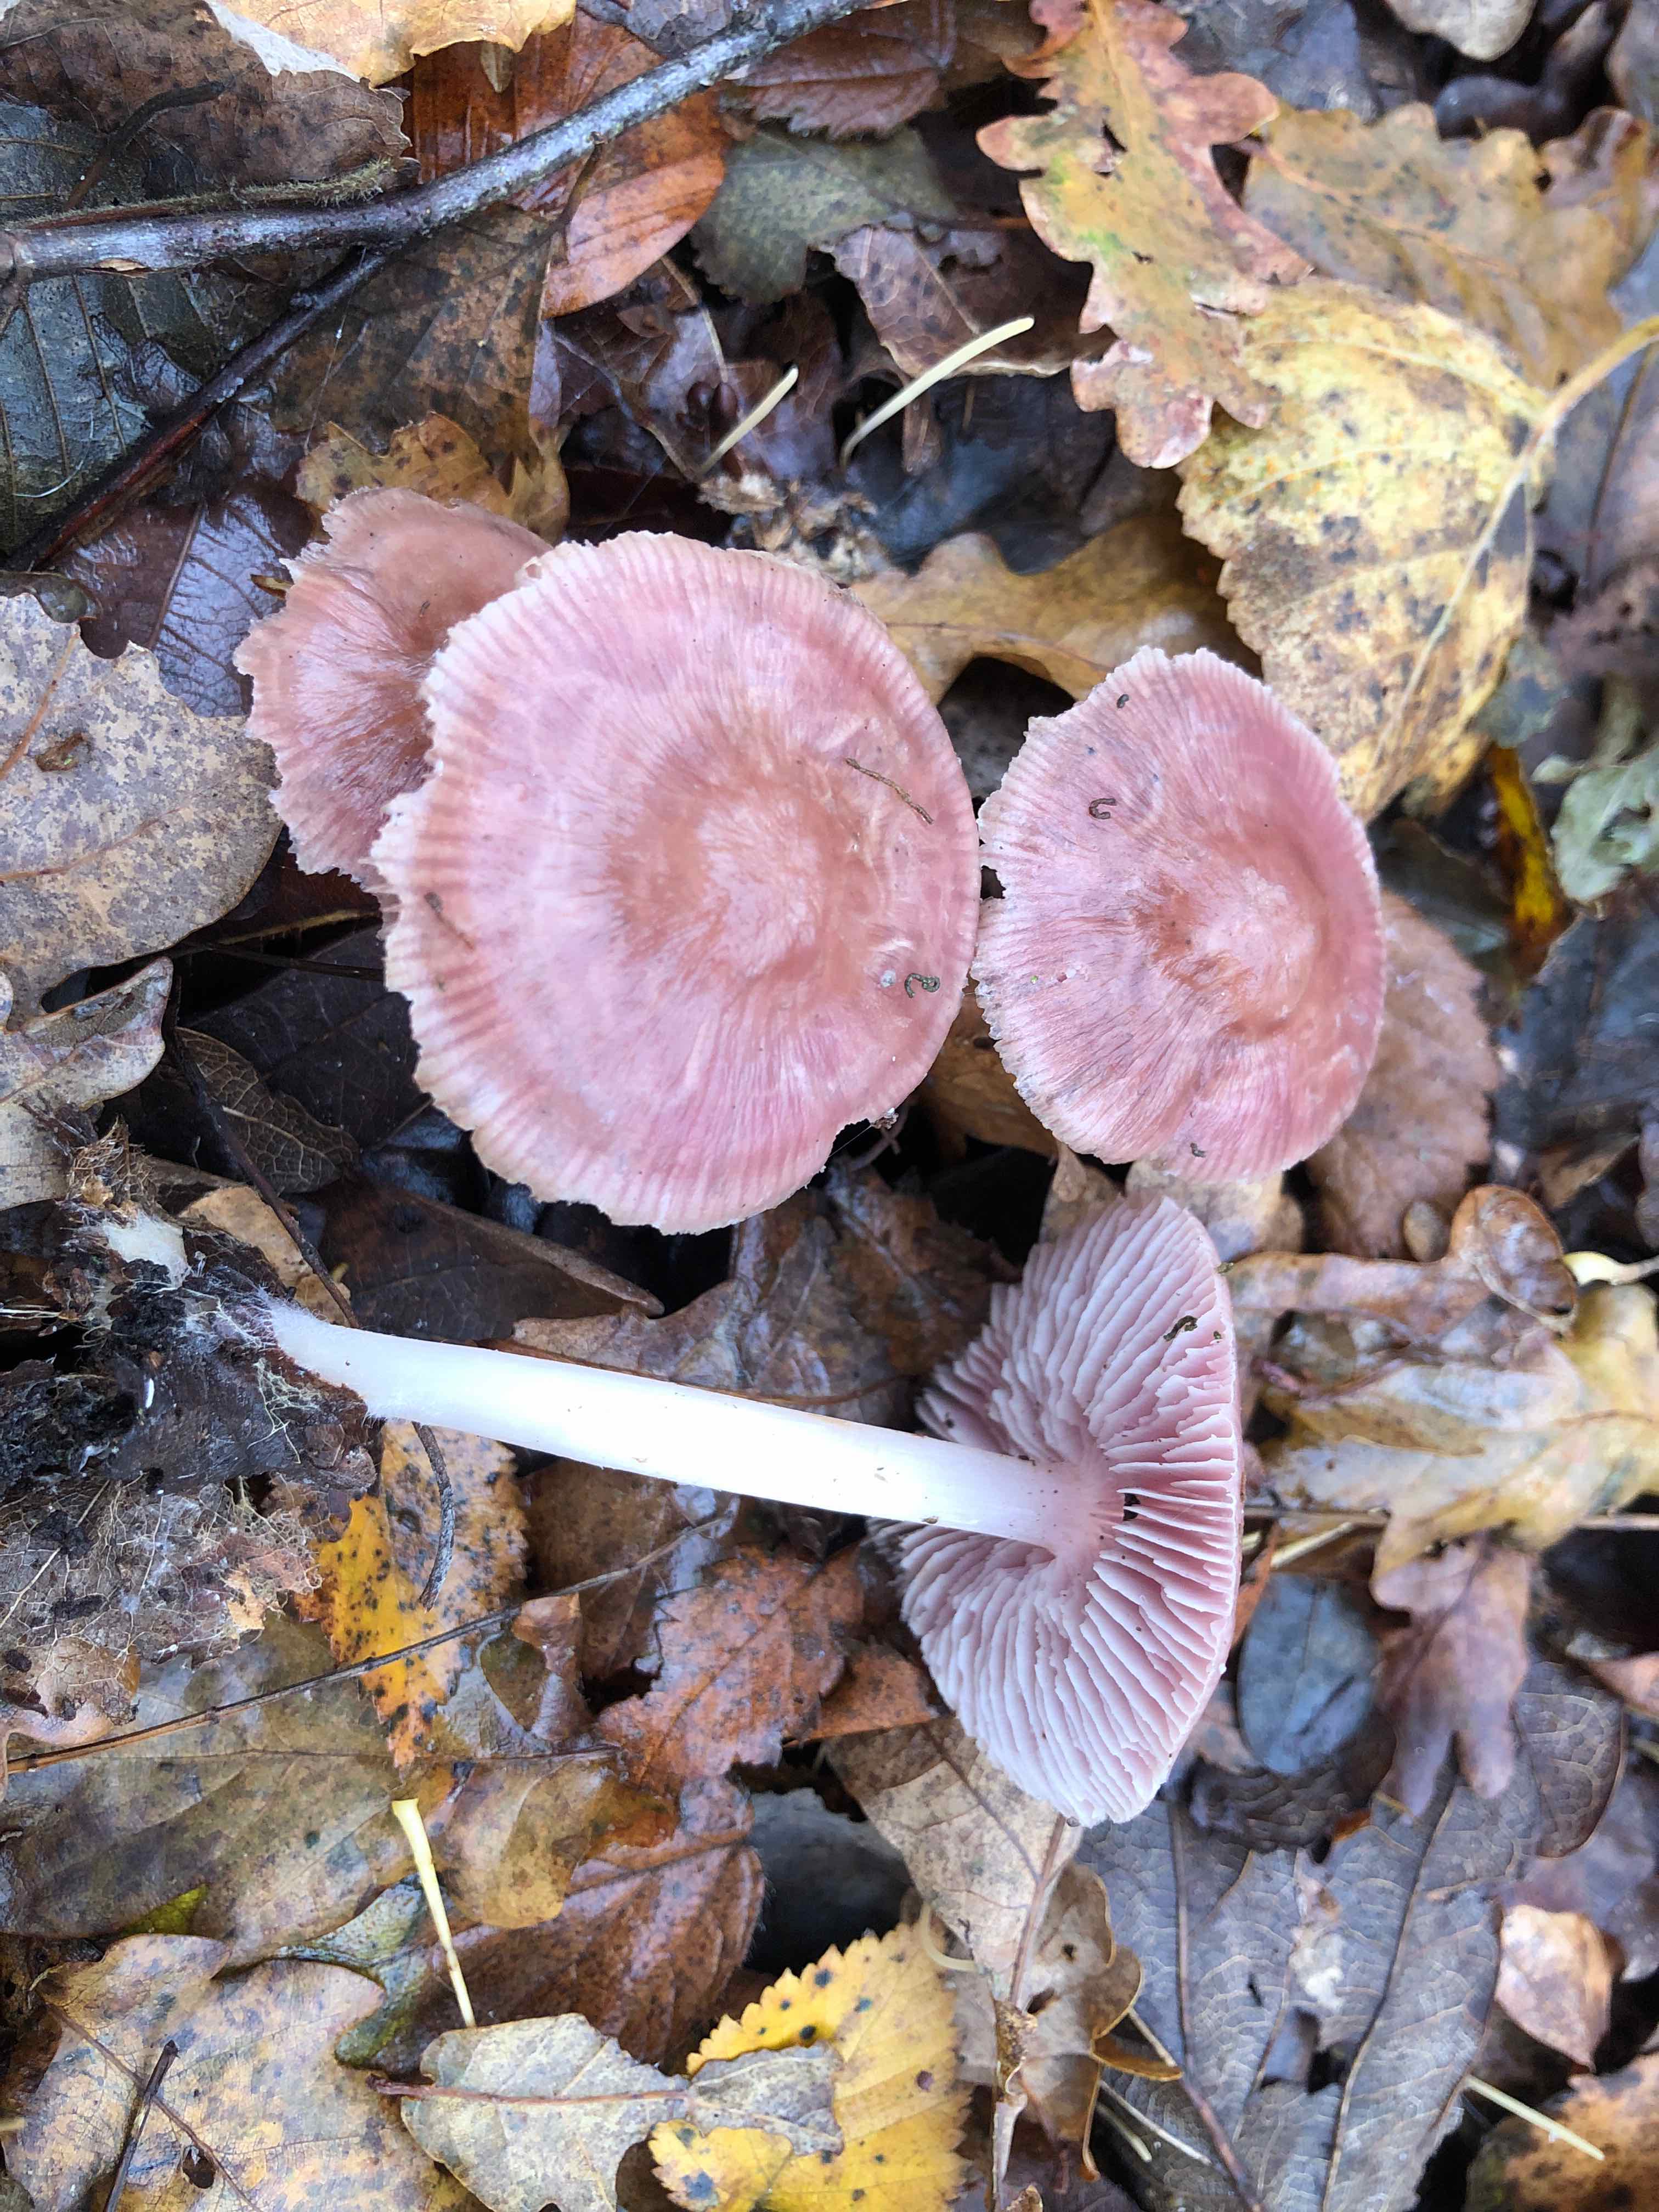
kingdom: Fungi
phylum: Basidiomycota
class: Agaricomycetes
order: Agaricales
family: Mycenaceae
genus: Mycena
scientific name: Mycena rosea
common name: rosa huesvamp
